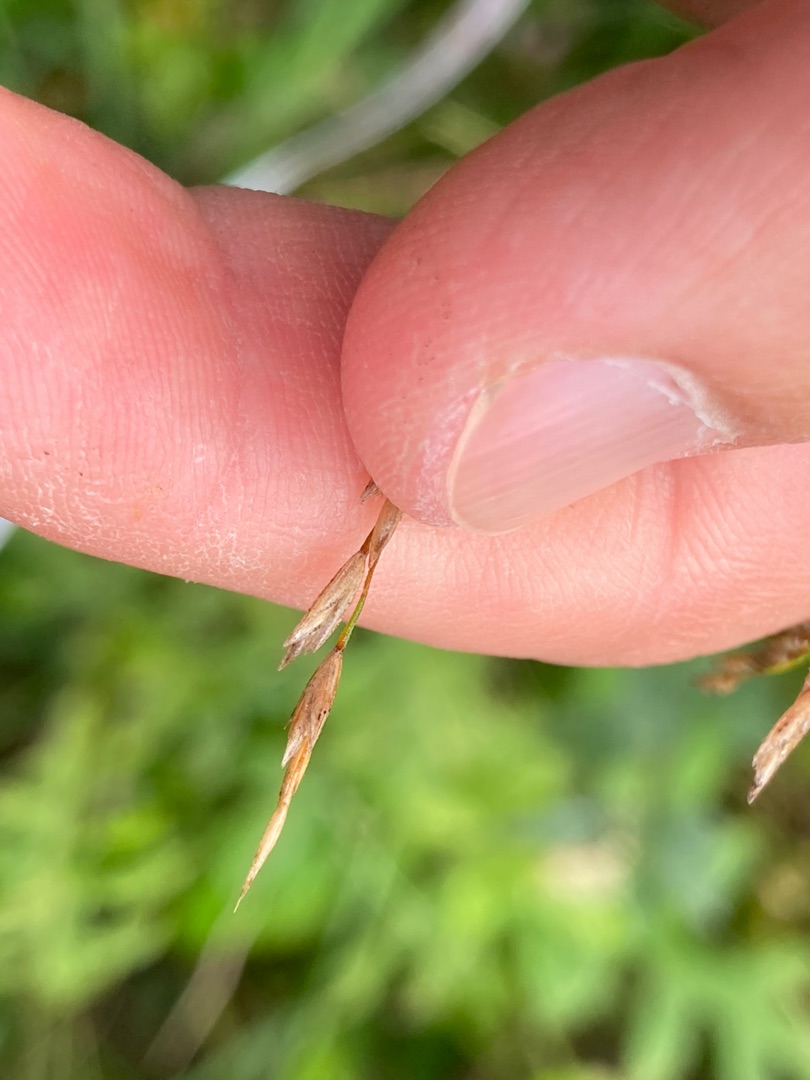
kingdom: Plantae
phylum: Tracheophyta
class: Liliopsida
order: Poales
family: Poaceae
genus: Poa
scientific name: Poa palustris
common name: Stortoppet rapgræs
